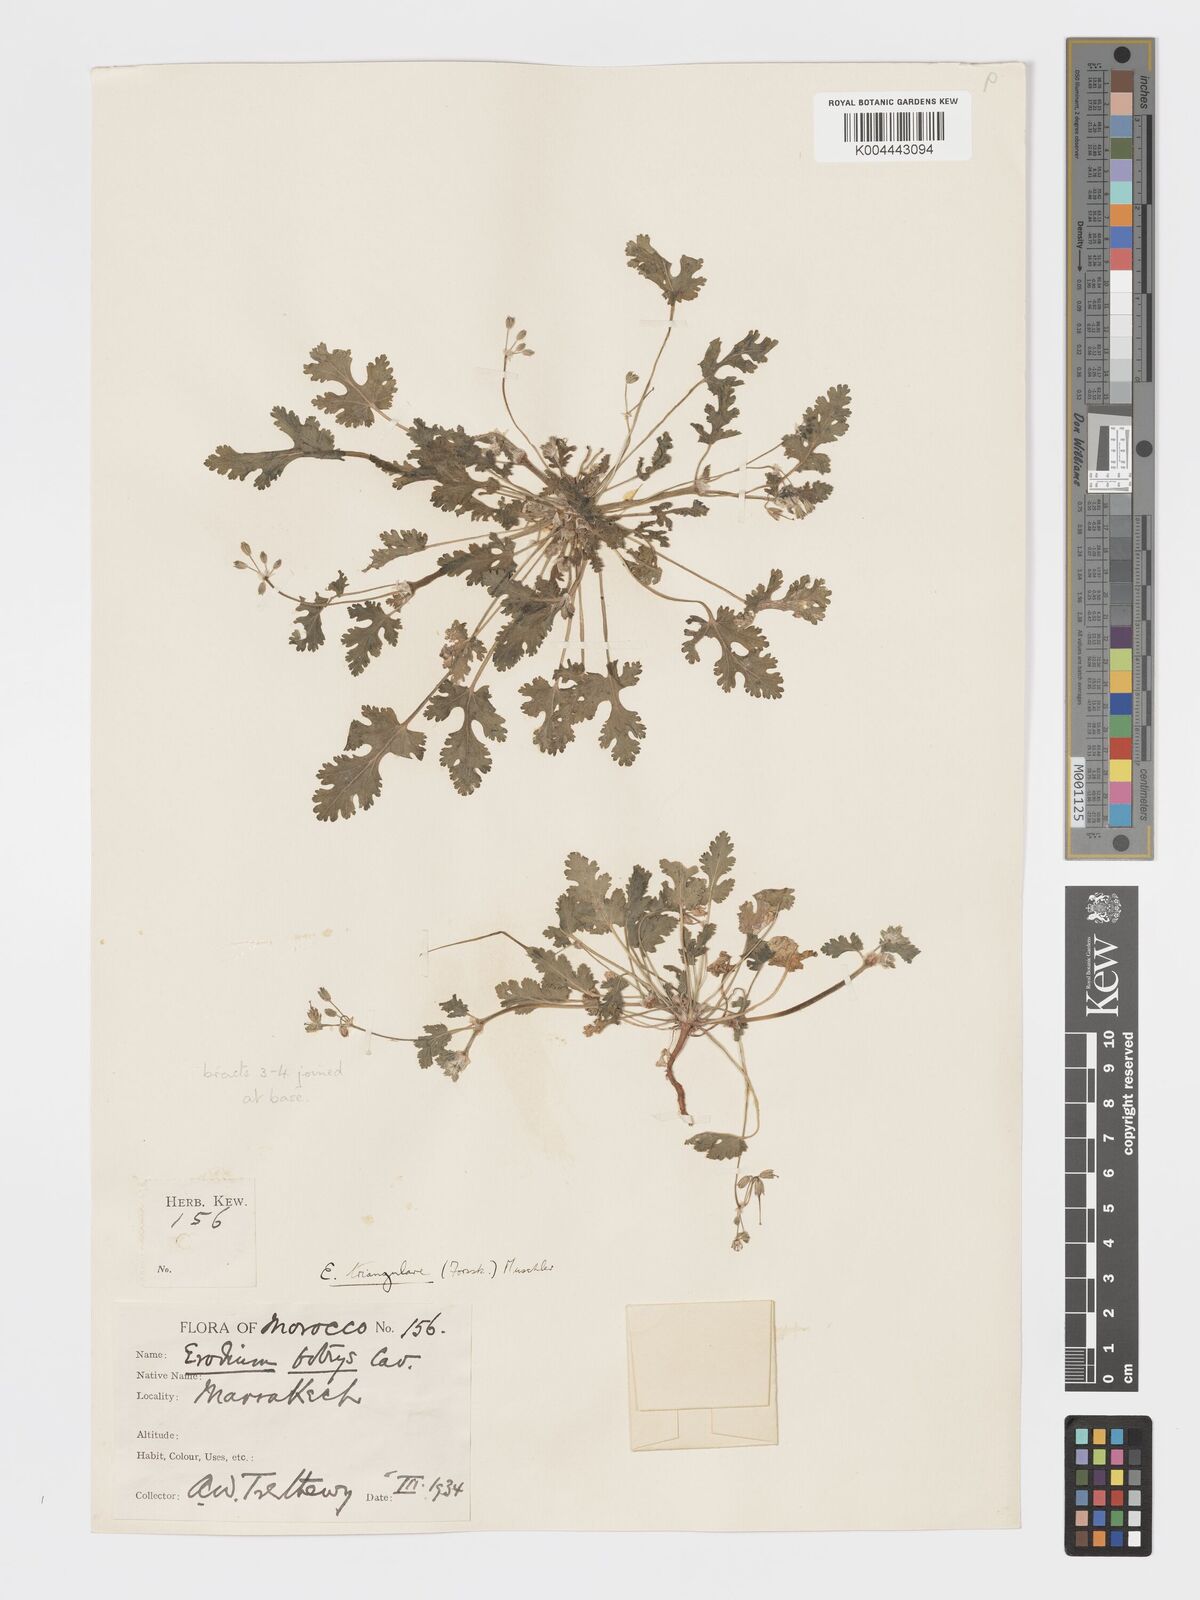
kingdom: Plantae
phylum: Tracheophyta
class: Magnoliopsida
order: Geraniales
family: Geraniaceae
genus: Erodium
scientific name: Erodium laciniatum
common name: Cutleaf stork's bill
